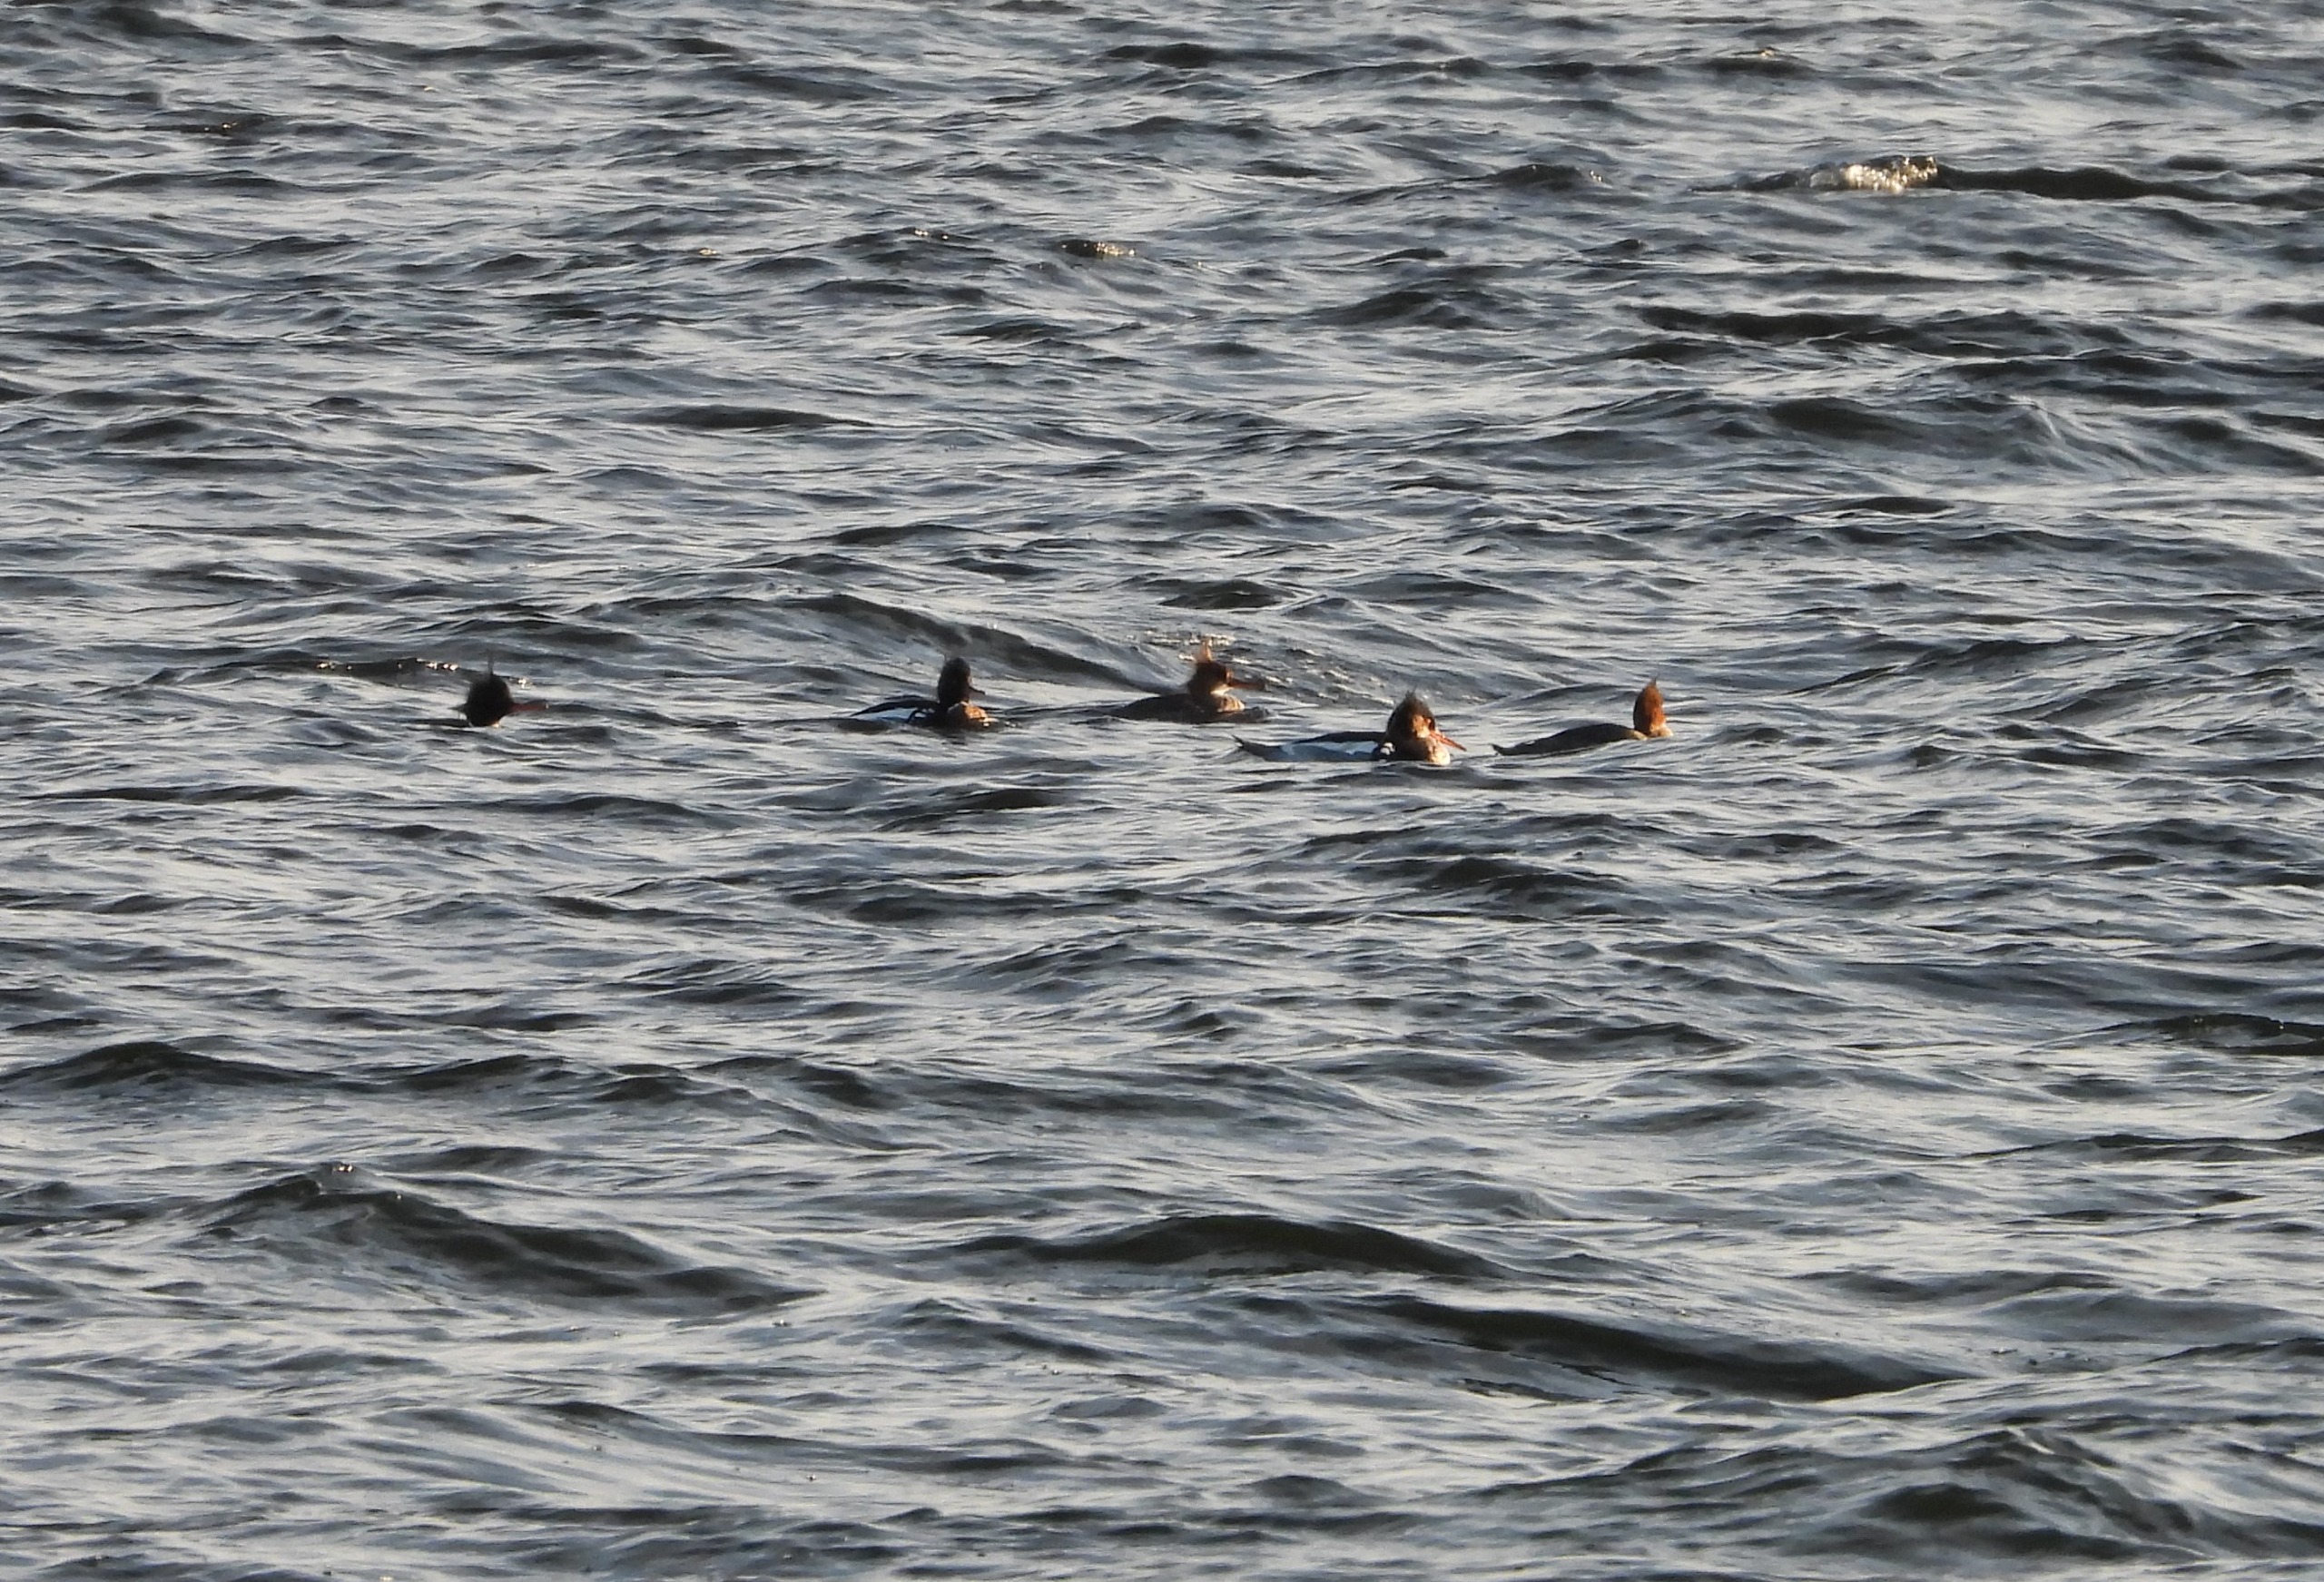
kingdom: Animalia
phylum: Chordata
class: Aves
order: Anseriformes
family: Anatidae
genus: Mergus
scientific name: Mergus serrator
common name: Toppet skallesluger
